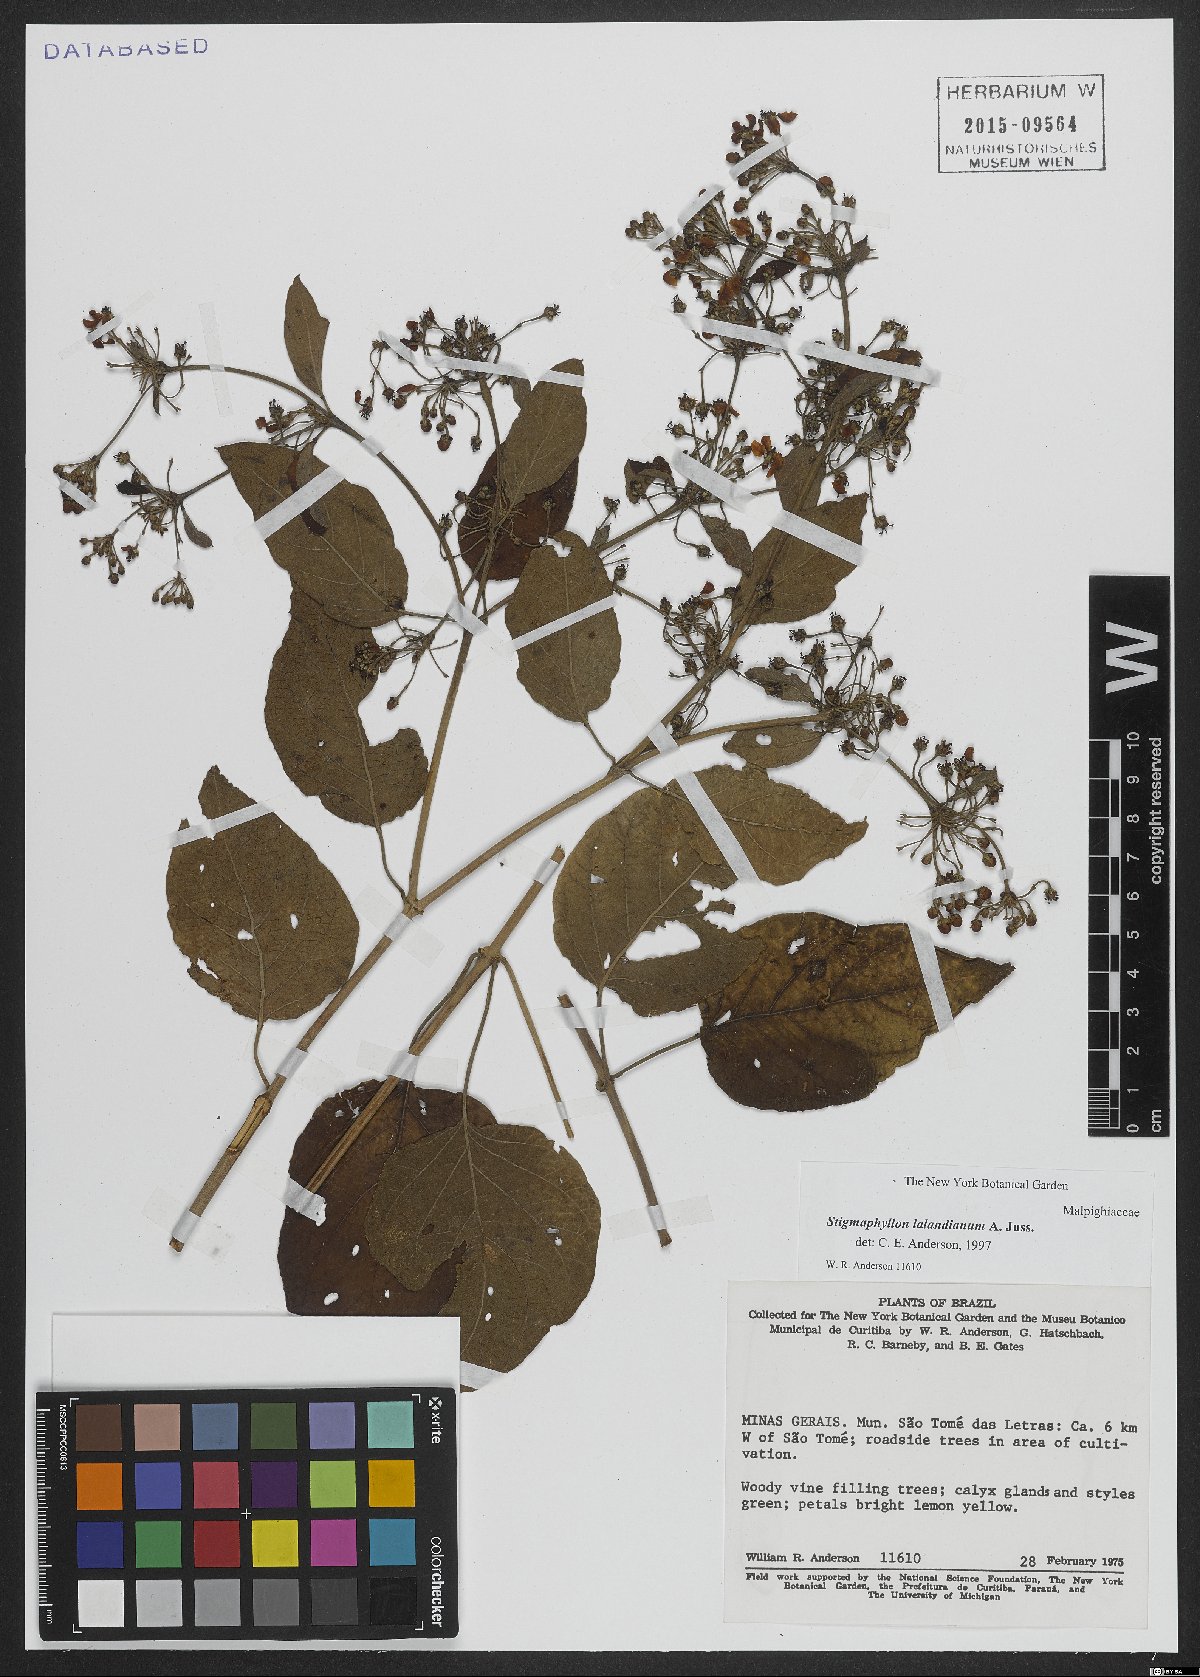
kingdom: Plantae
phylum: Tracheophyta
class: Magnoliopsida
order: Malpighiales
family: Malpighiaceae
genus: Stigmaphyllon
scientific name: Stigmaphyllon lalandianum
